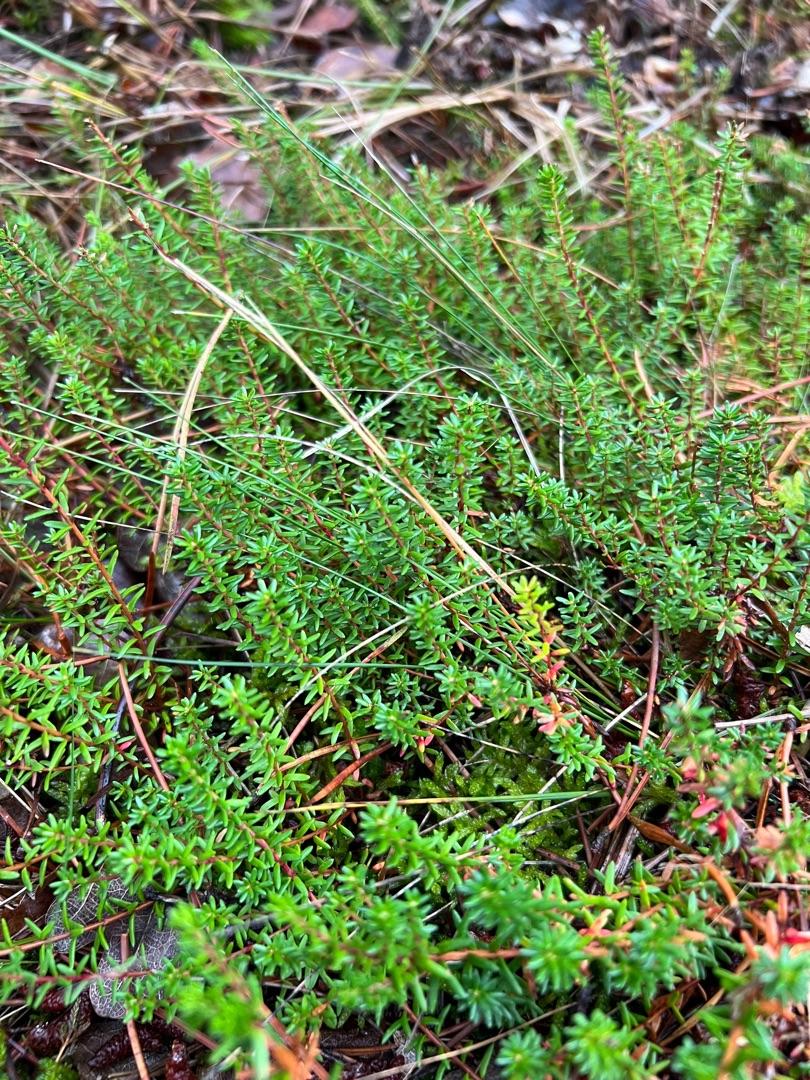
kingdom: Plantae
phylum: Tracheophyta
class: Magnoliopsida
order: Ericales
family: Ericaceae
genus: Empetrum
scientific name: Empetrum nigrum
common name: Revling
